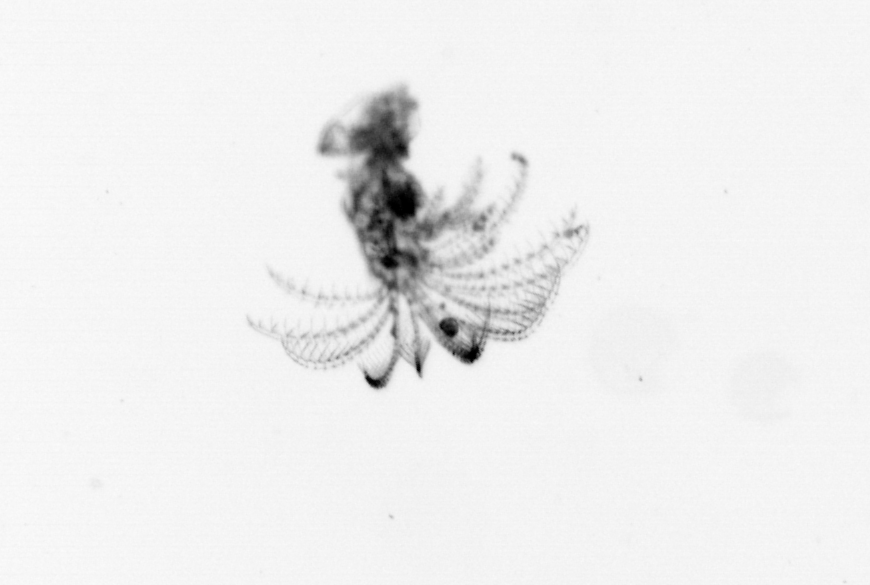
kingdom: Animalia
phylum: Arthropoda
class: Maxillopoda
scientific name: Maxillopoda
